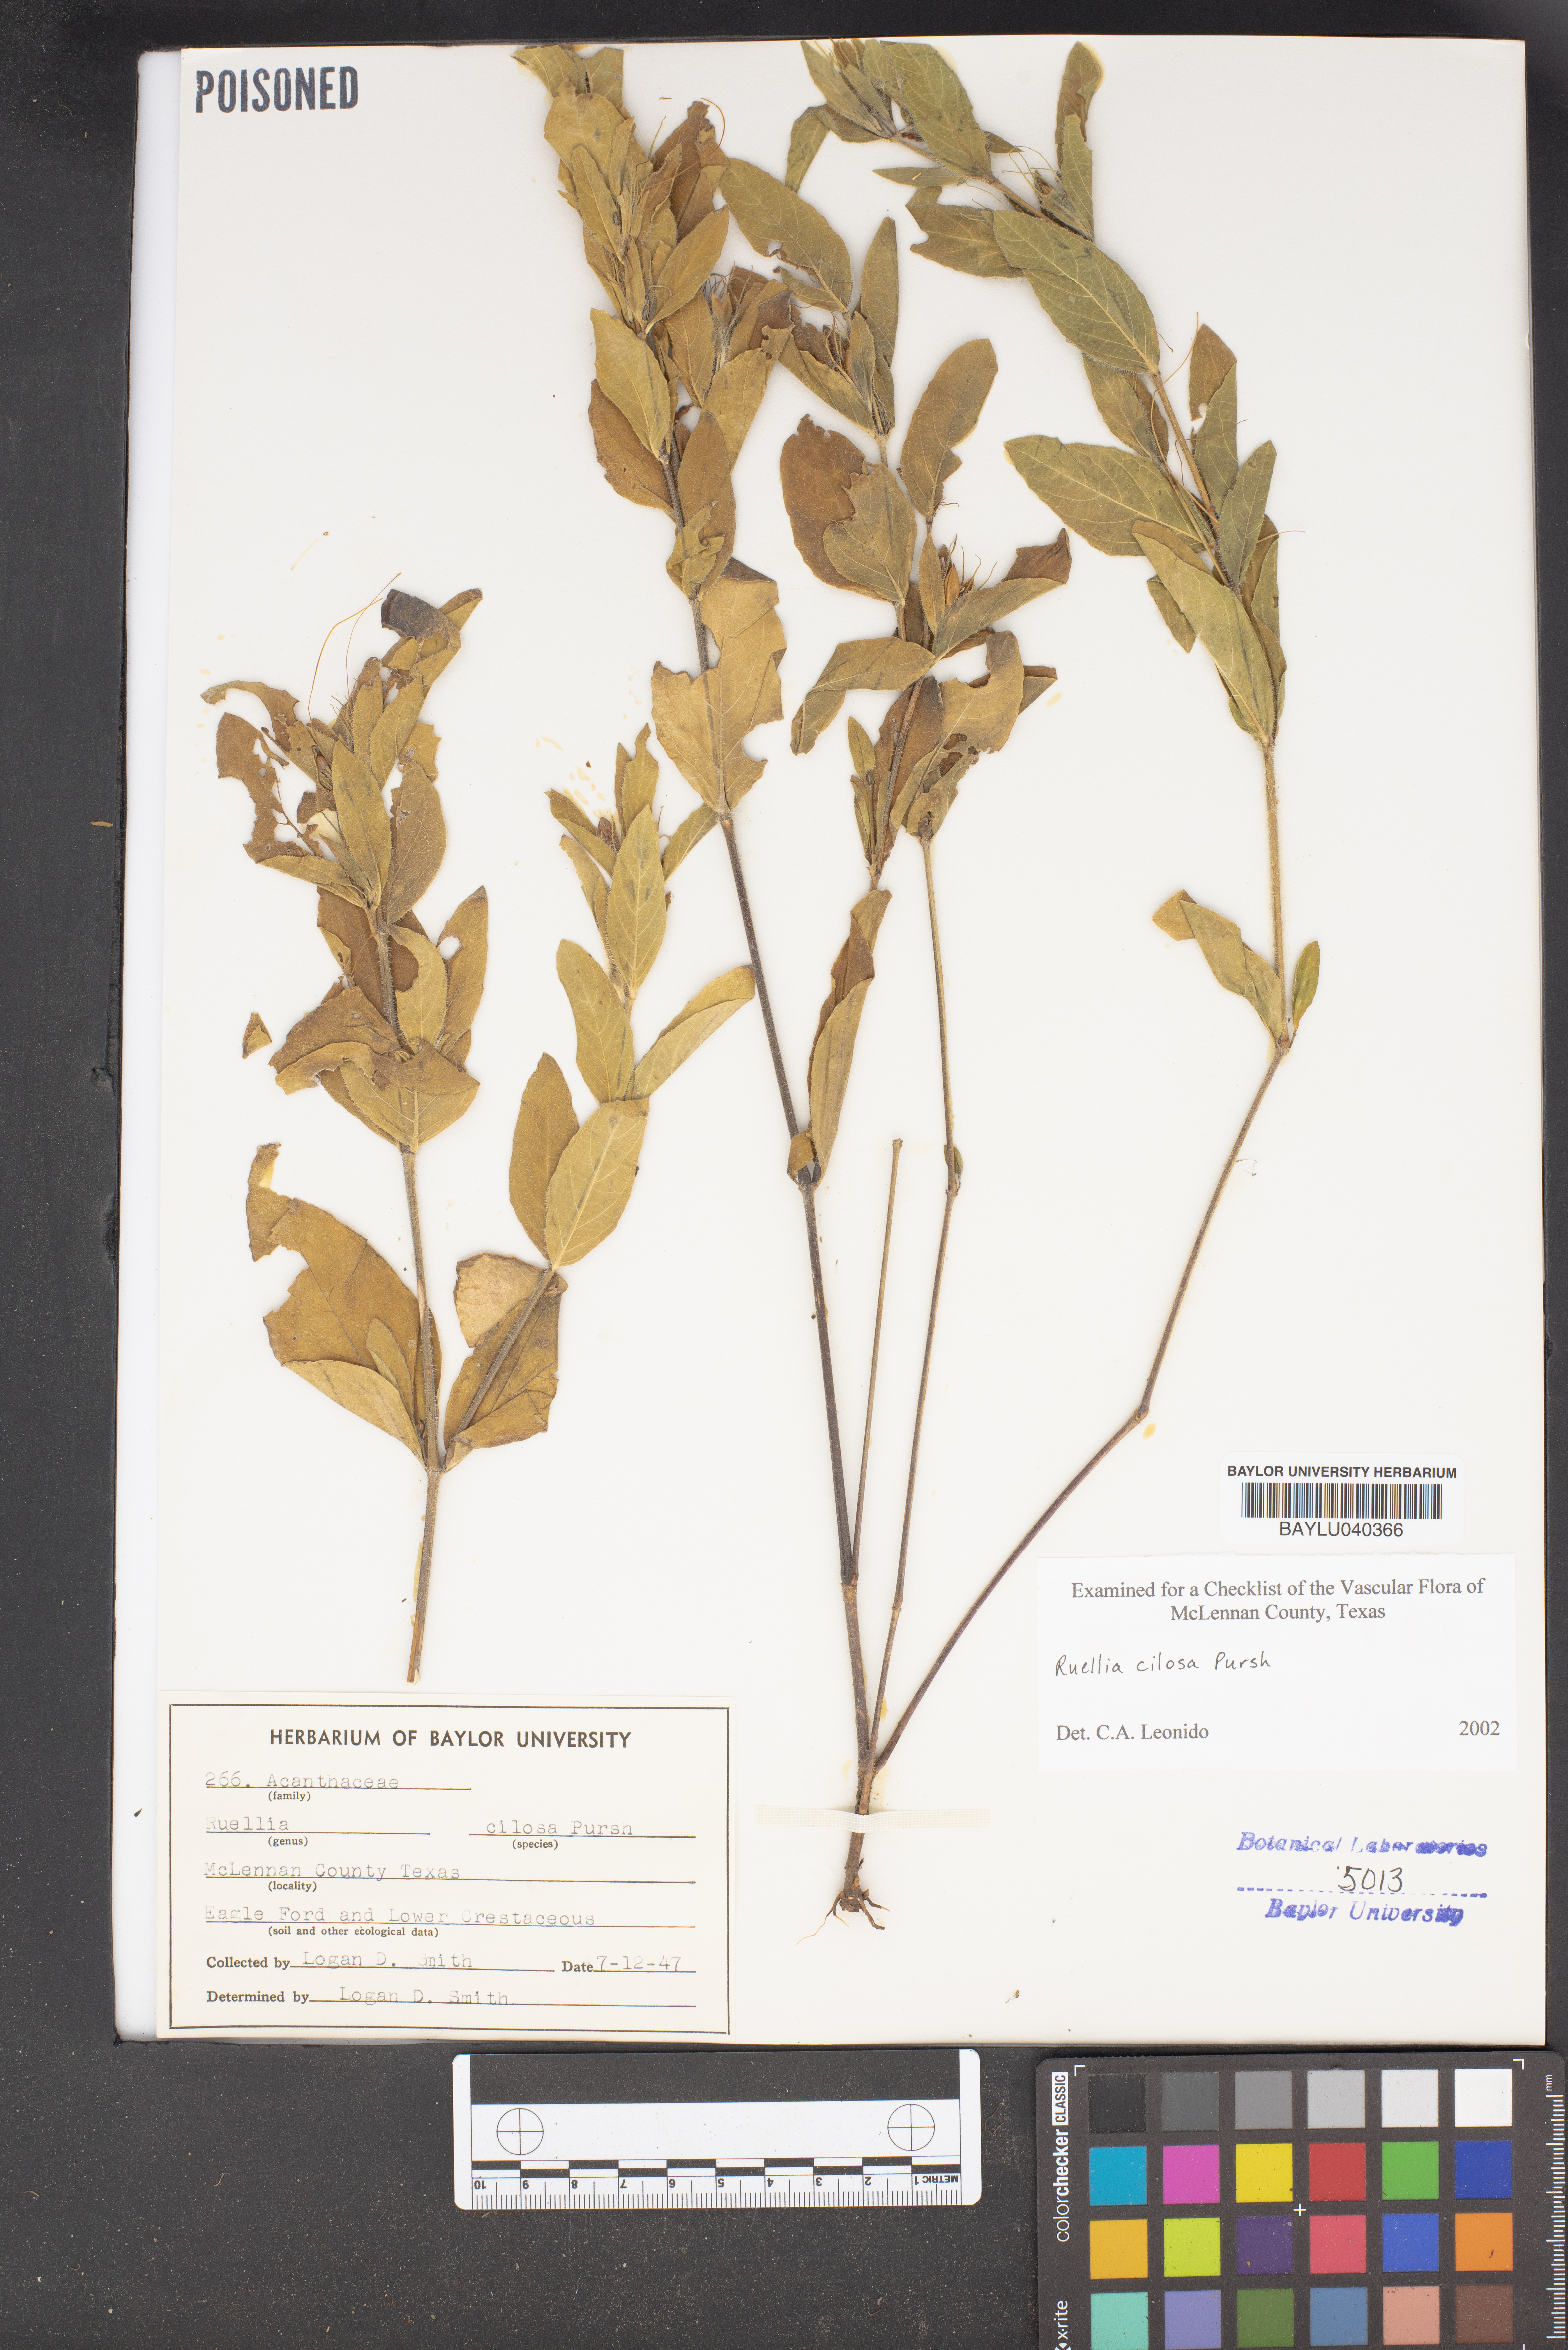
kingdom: Plantae
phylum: Tracheophyta
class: Magnoliopsida
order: Lamiales
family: Acanthaceae
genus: Ruellia
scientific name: Ruellia caroliniensis
